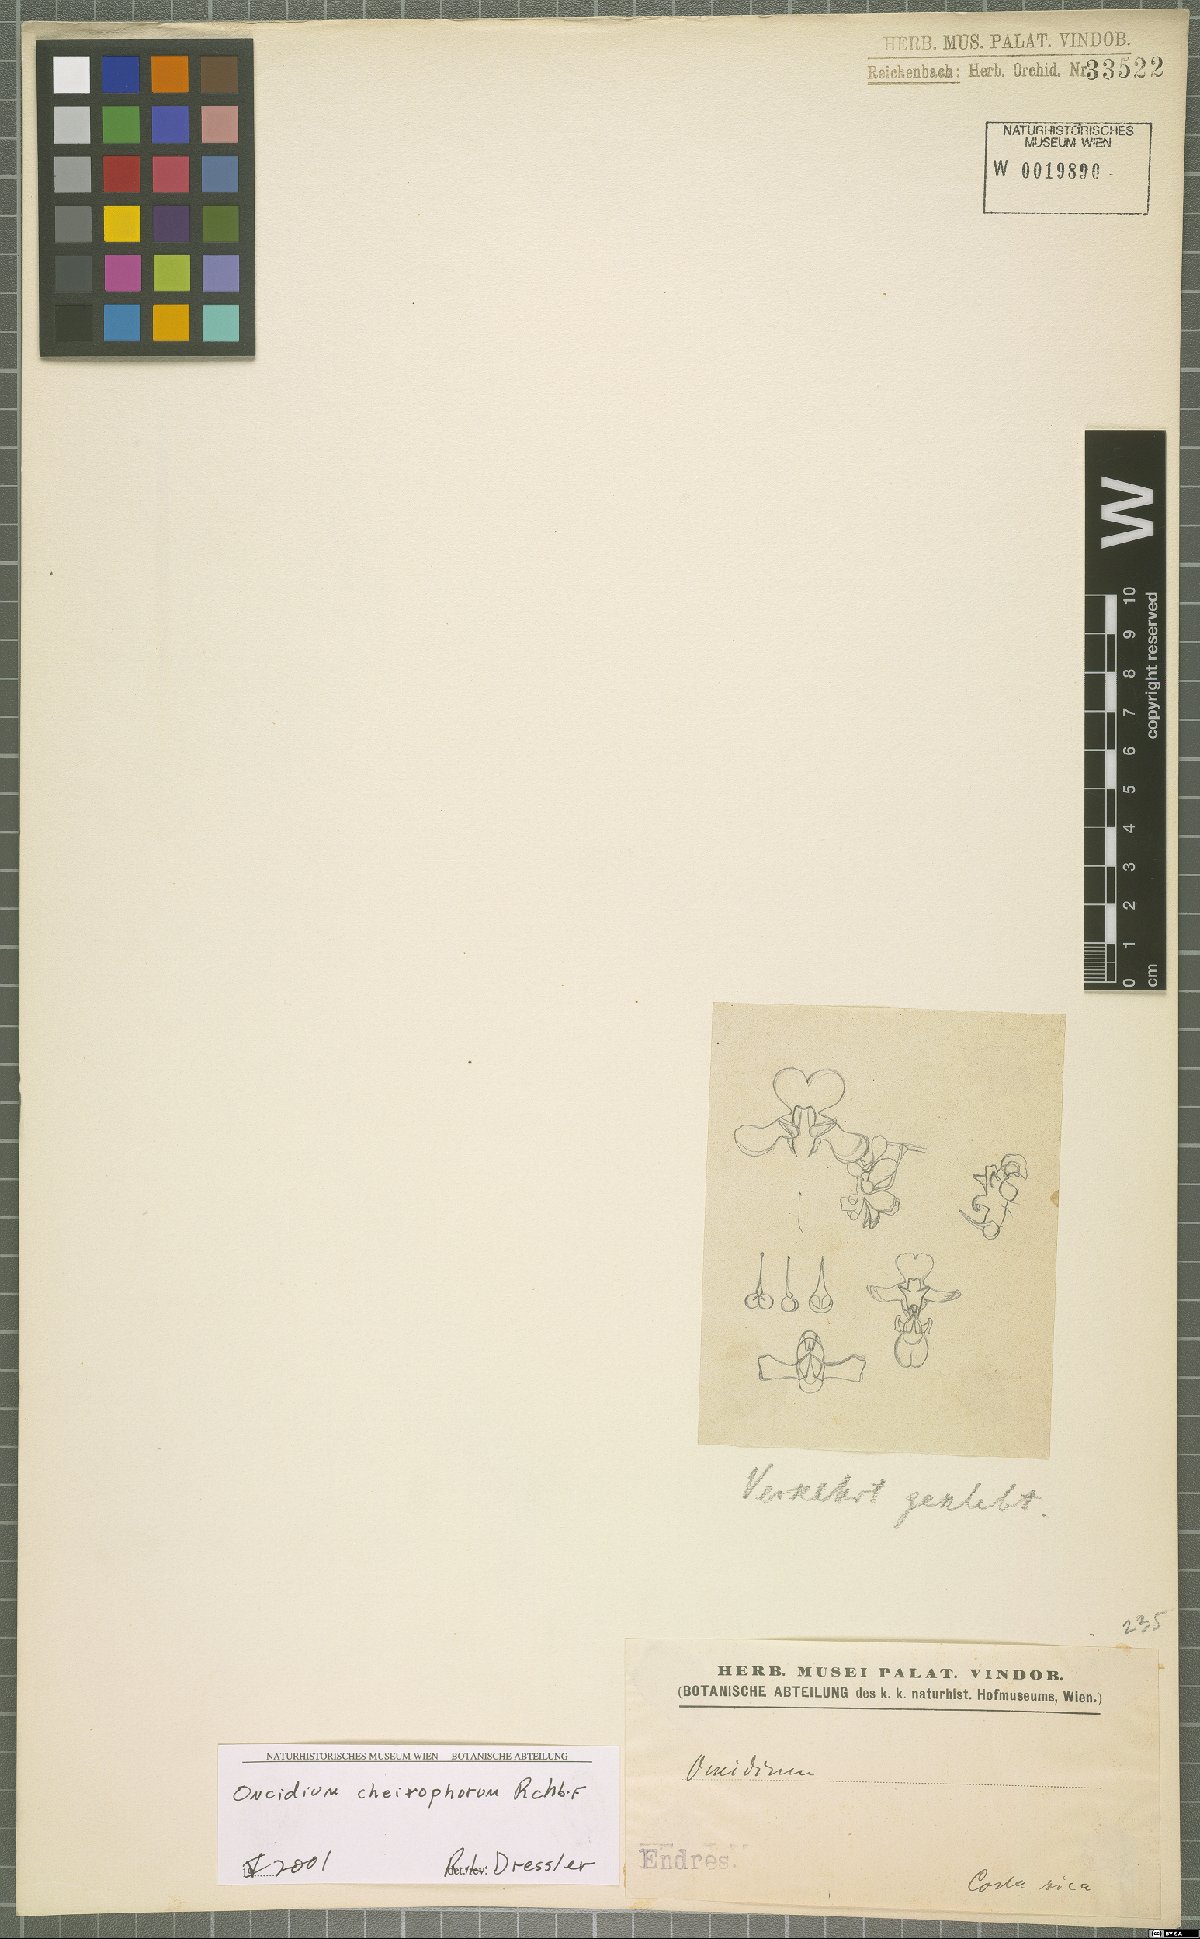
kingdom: Plantae
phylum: Tracheophyta
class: Liliopsida
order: Asparagales
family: Orchidaceae
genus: Oncidium
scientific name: Oncidium cheirophorum
